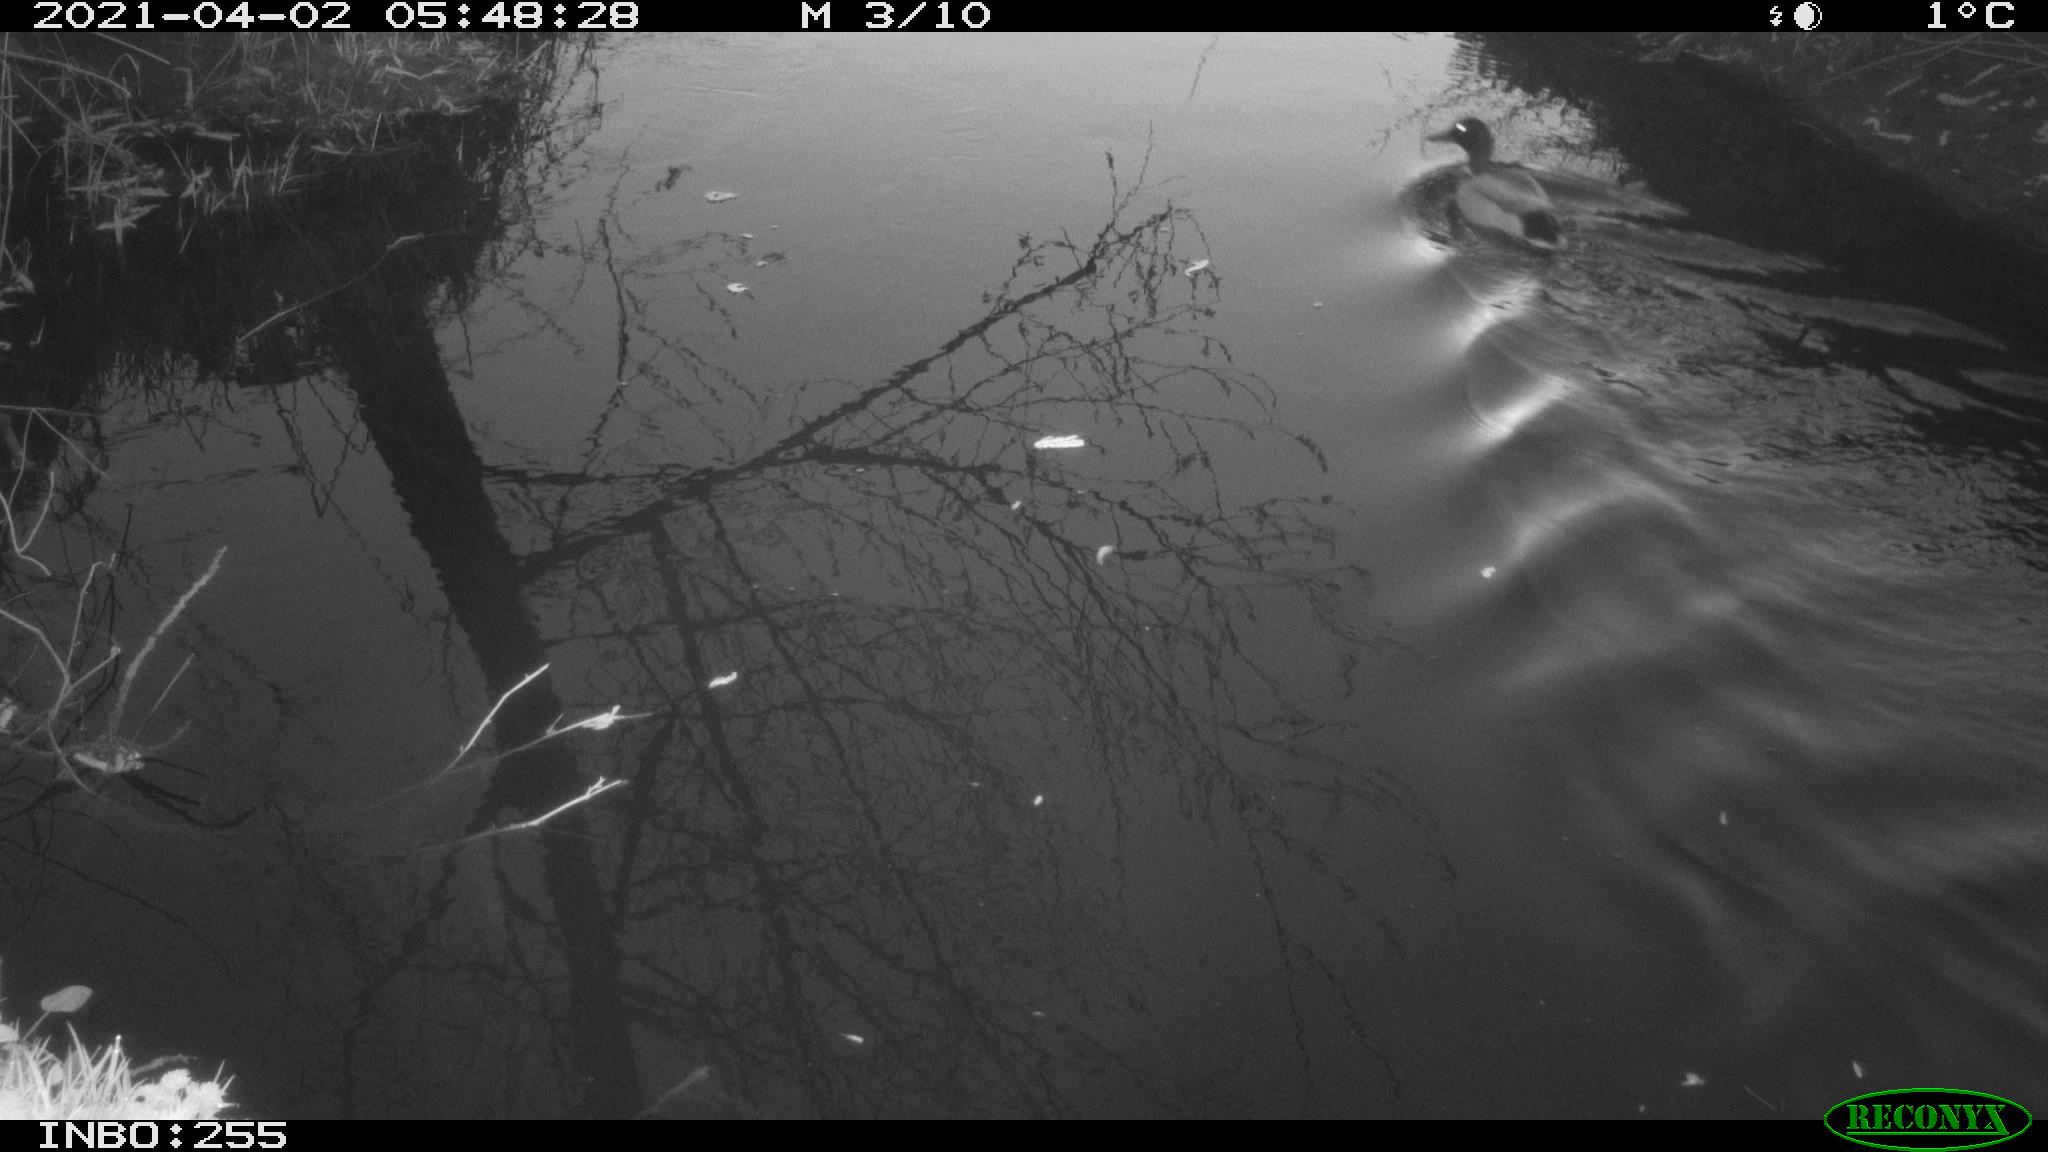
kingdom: Animalia
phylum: Chordata
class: Aves
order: Anseriformes
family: Anatidae
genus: Anas
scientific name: Anas platyrhynchos
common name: Mallard
